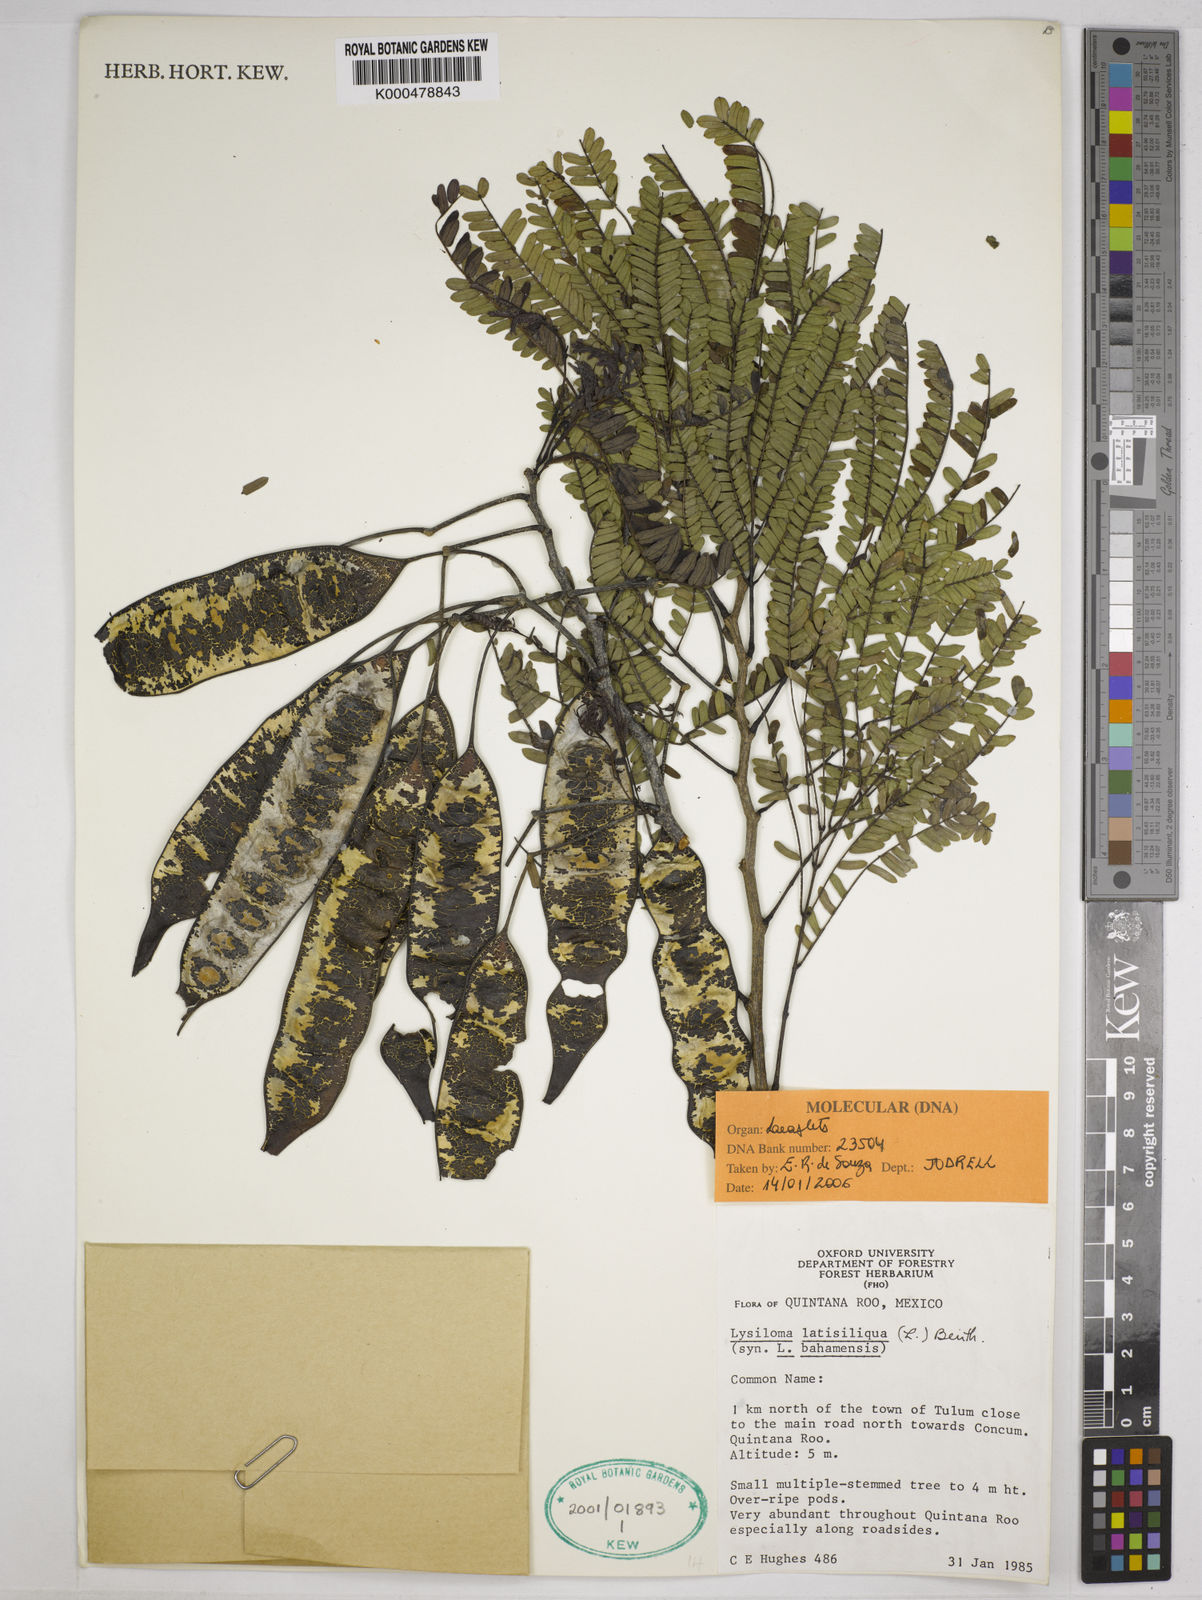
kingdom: Plantae
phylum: Tracheophyta
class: Magnoliopsida
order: Fabales
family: Fabaceae
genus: Lysiloma
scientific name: Lysiloma latisiliquum
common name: Wild tamarind
